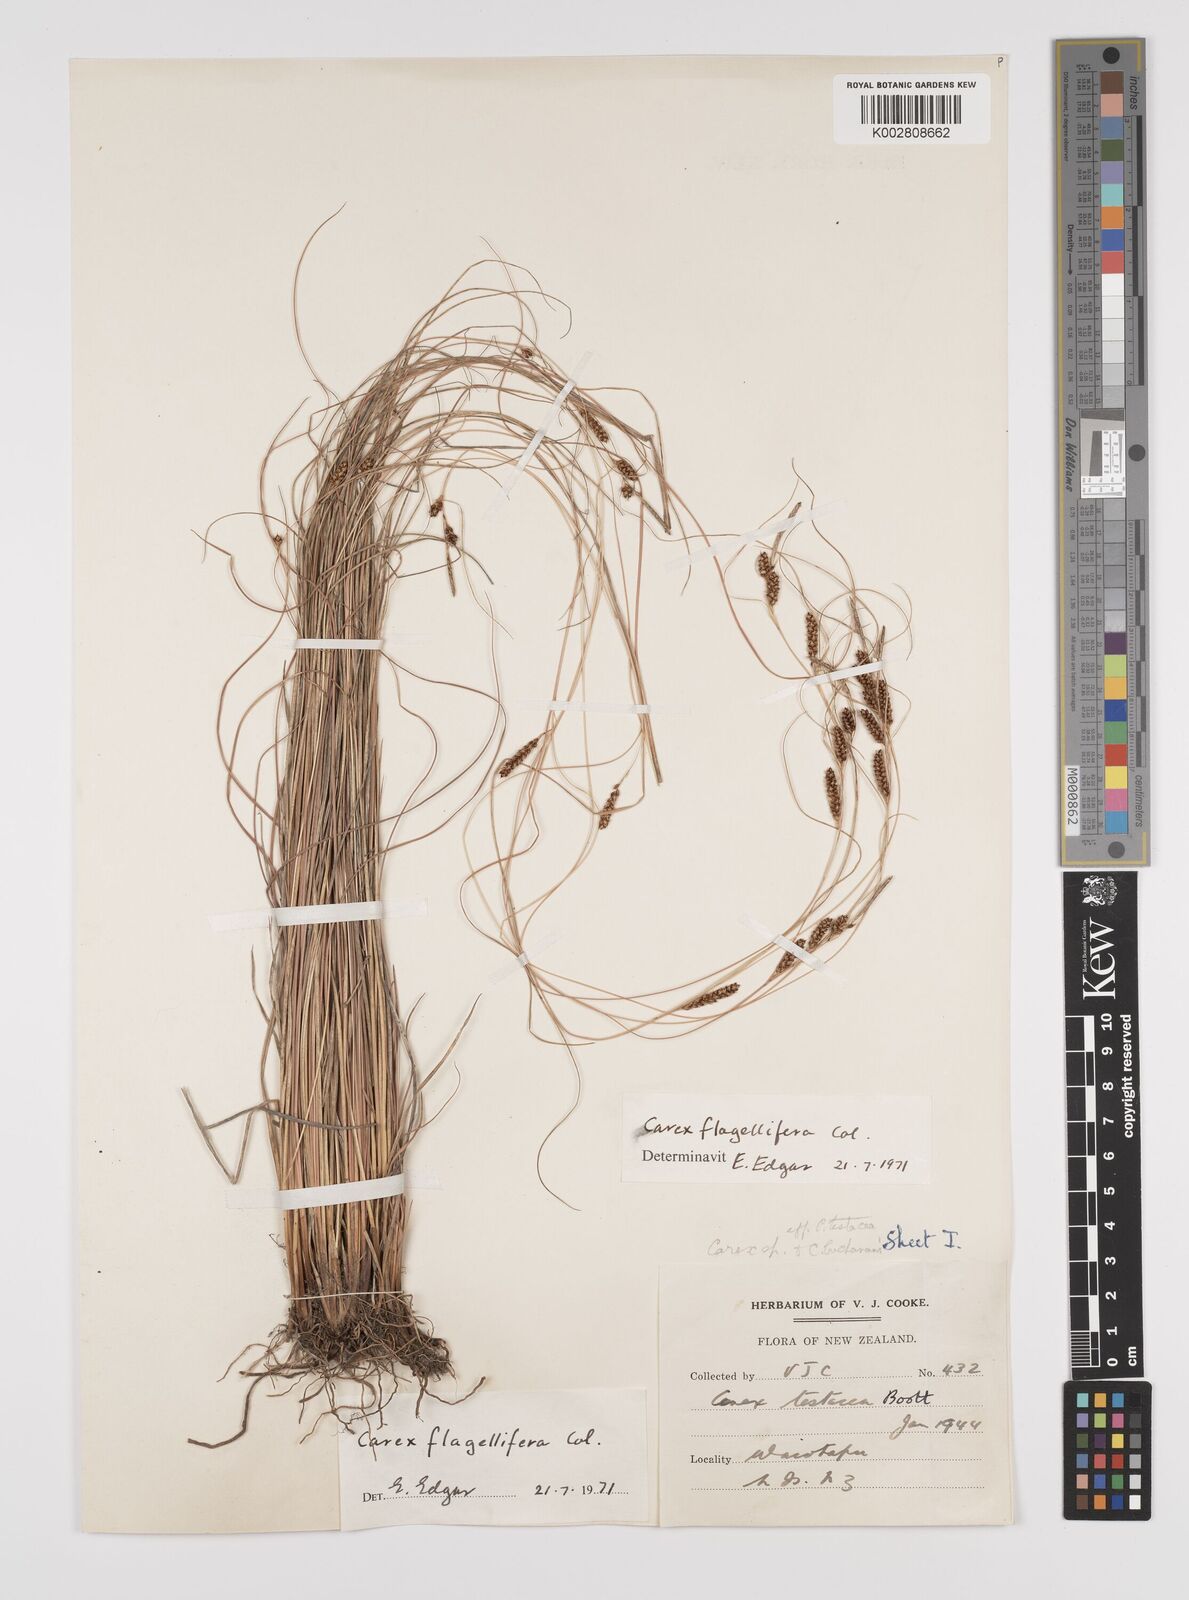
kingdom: Plantae
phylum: Tracheophyta
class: Liliopsida
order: Poales
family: Cyperaceae
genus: Carex
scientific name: Carex flagellifera
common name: Glen murray tussock
